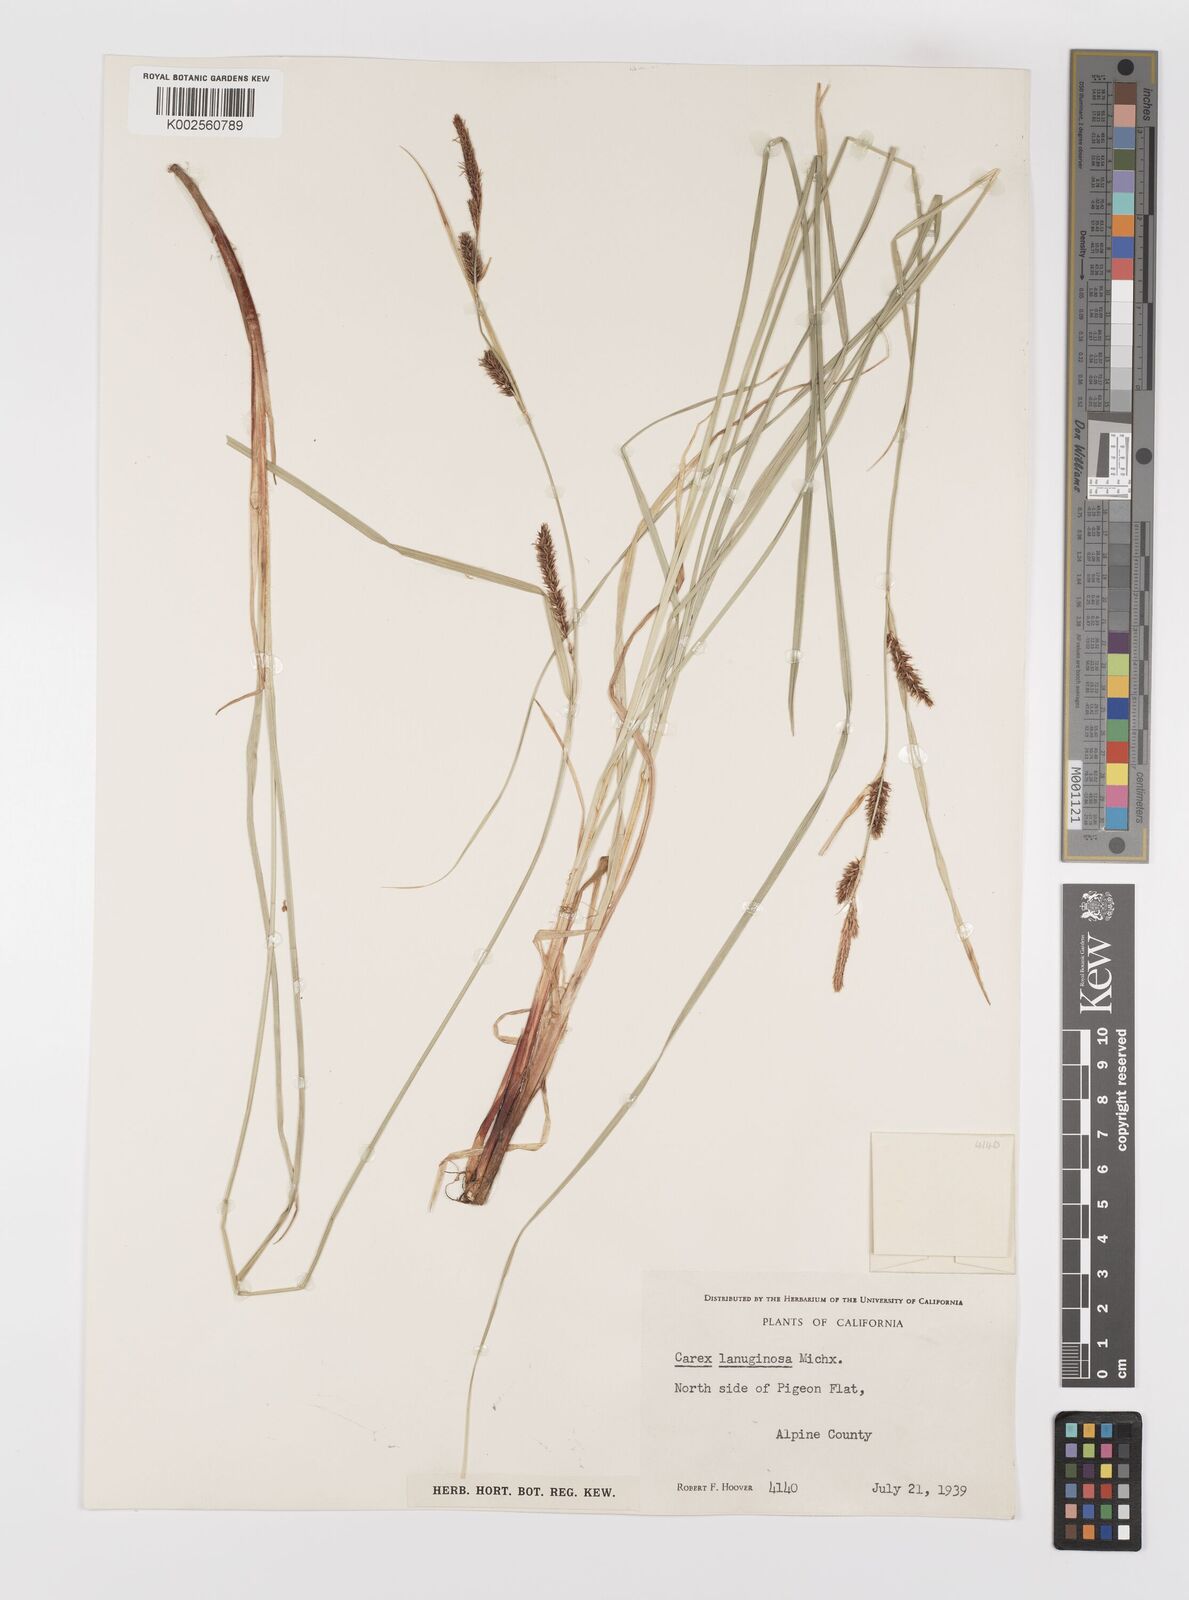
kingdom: Plantae
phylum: Tracheophyta
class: Liliopsida
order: Poales
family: Cyperaceae
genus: Carex
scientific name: Carex lasiocarpa
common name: Slender sedge
